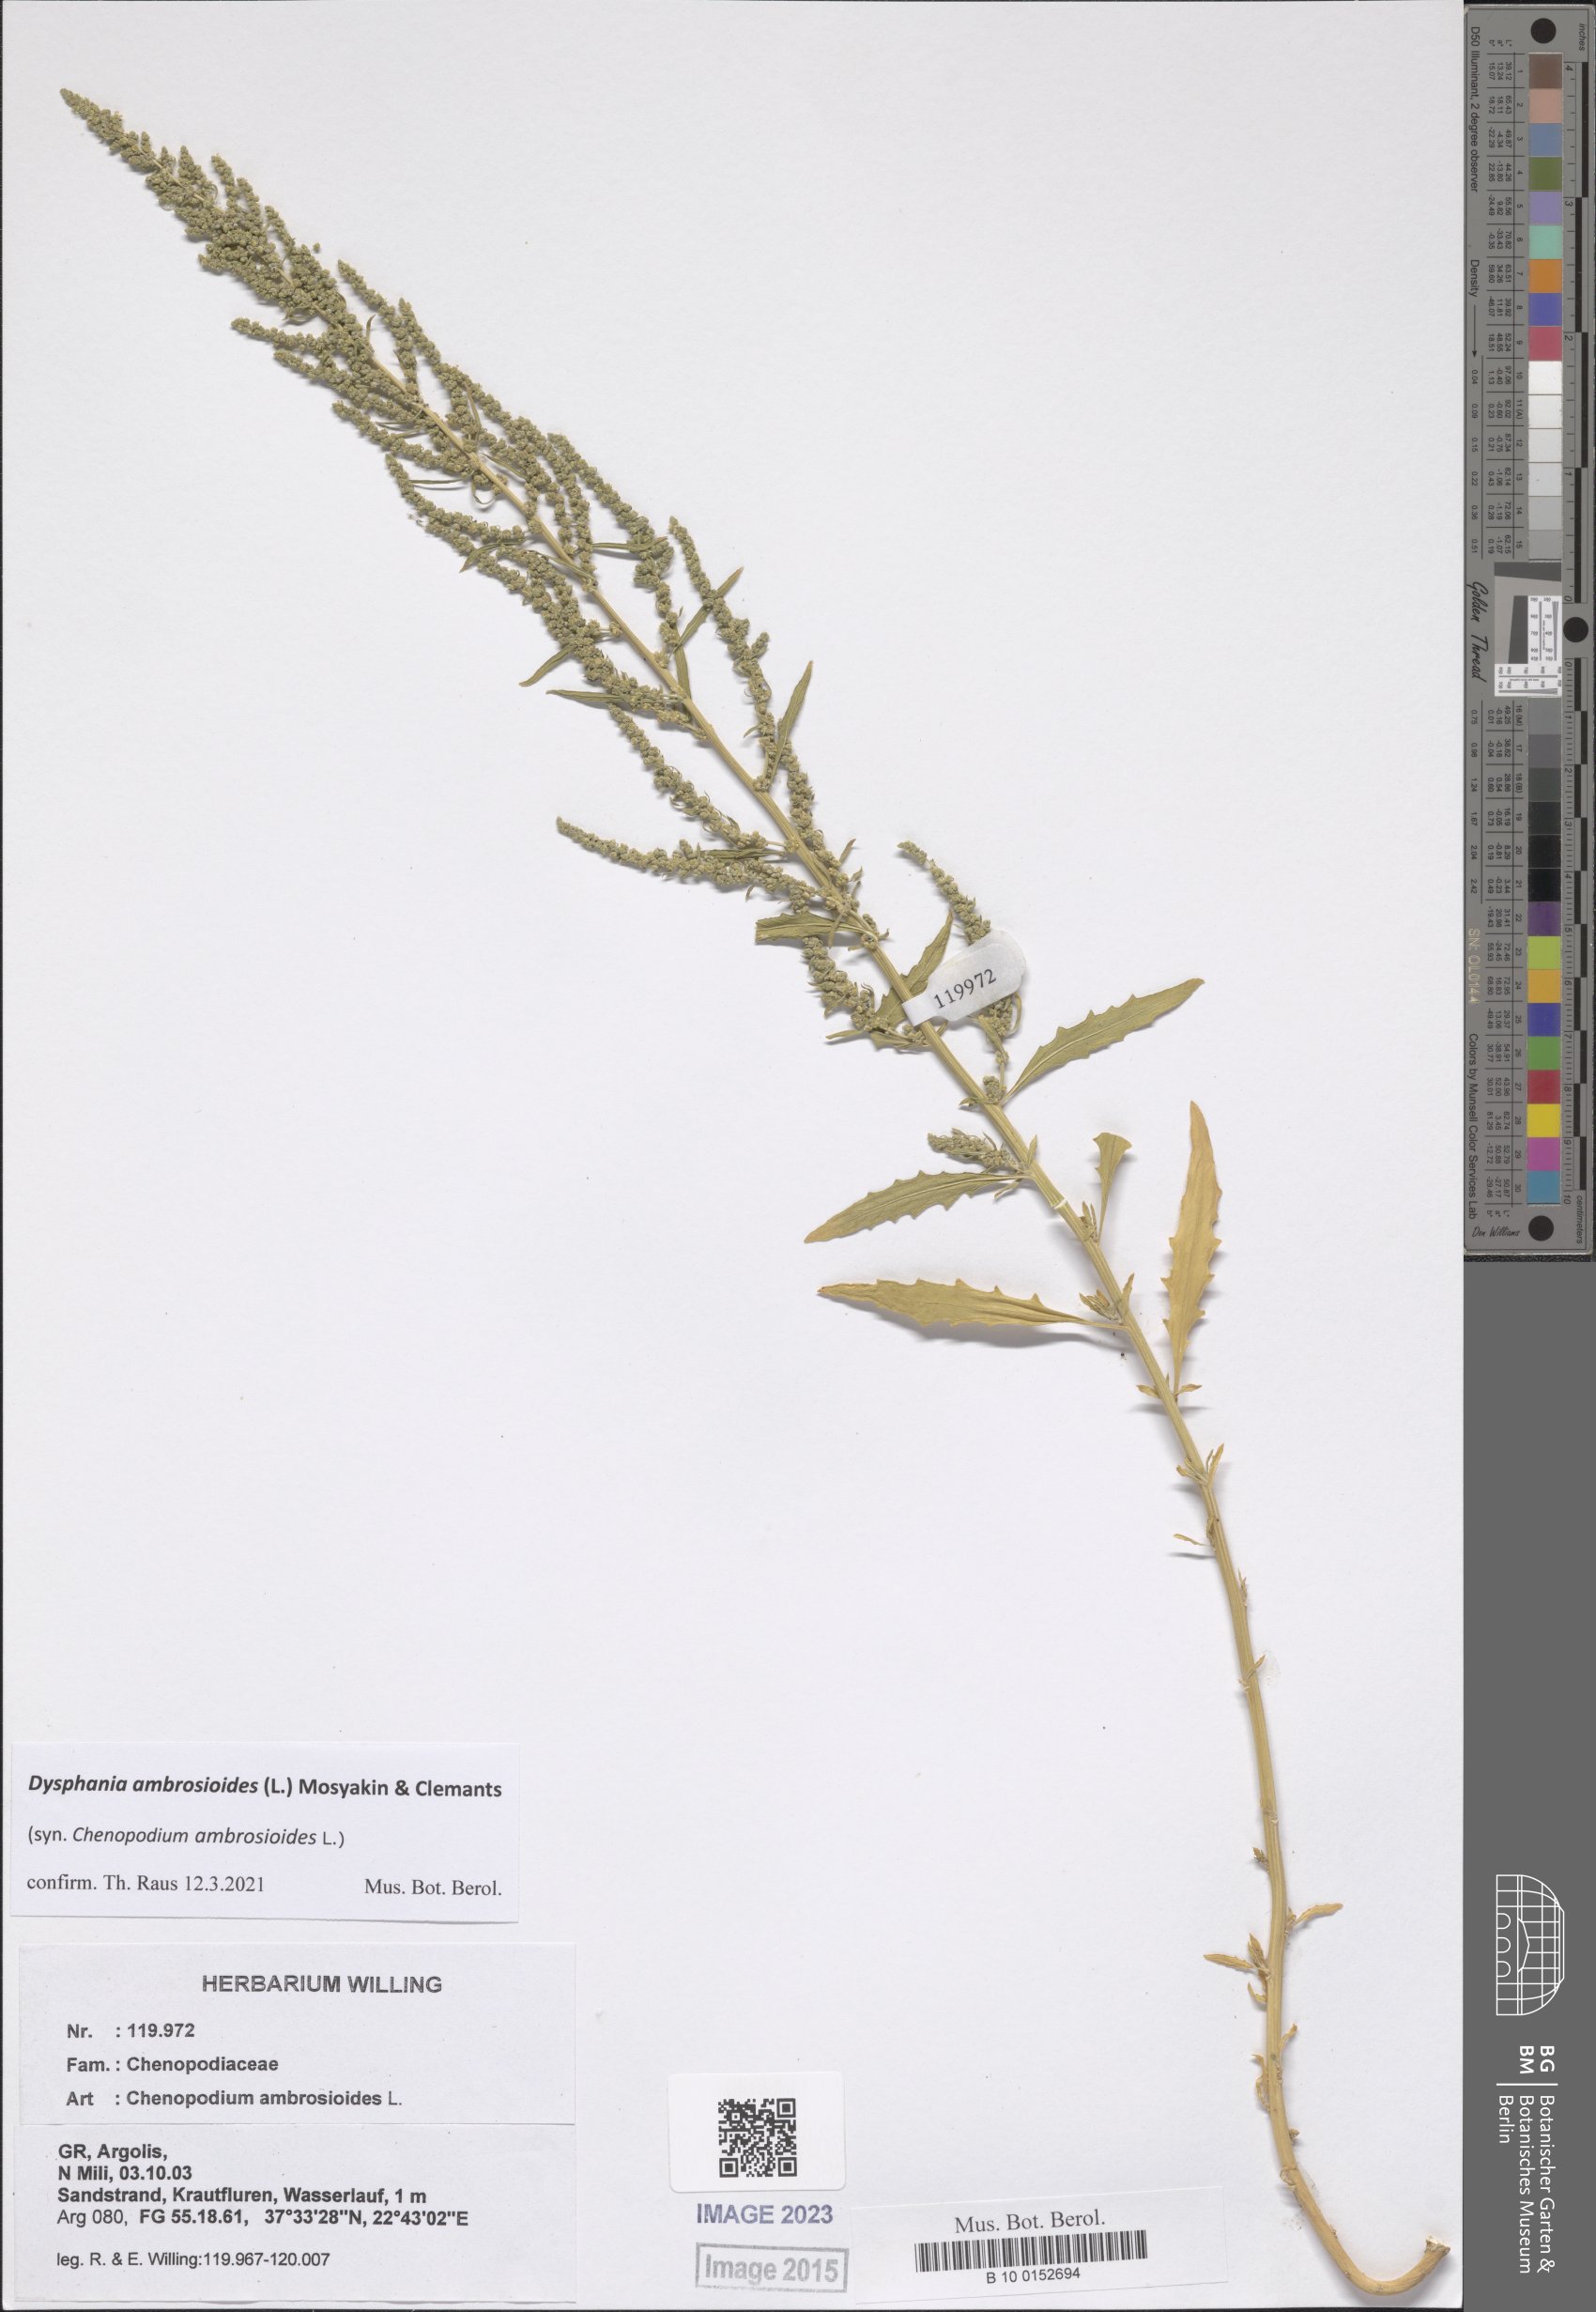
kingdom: Plantae
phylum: Tracheophyta
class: Magnoliopsida
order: Caryophyllales
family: Amaranthaceae
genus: Dysphania
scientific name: Dysphania ambrosioides
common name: Wormseed
